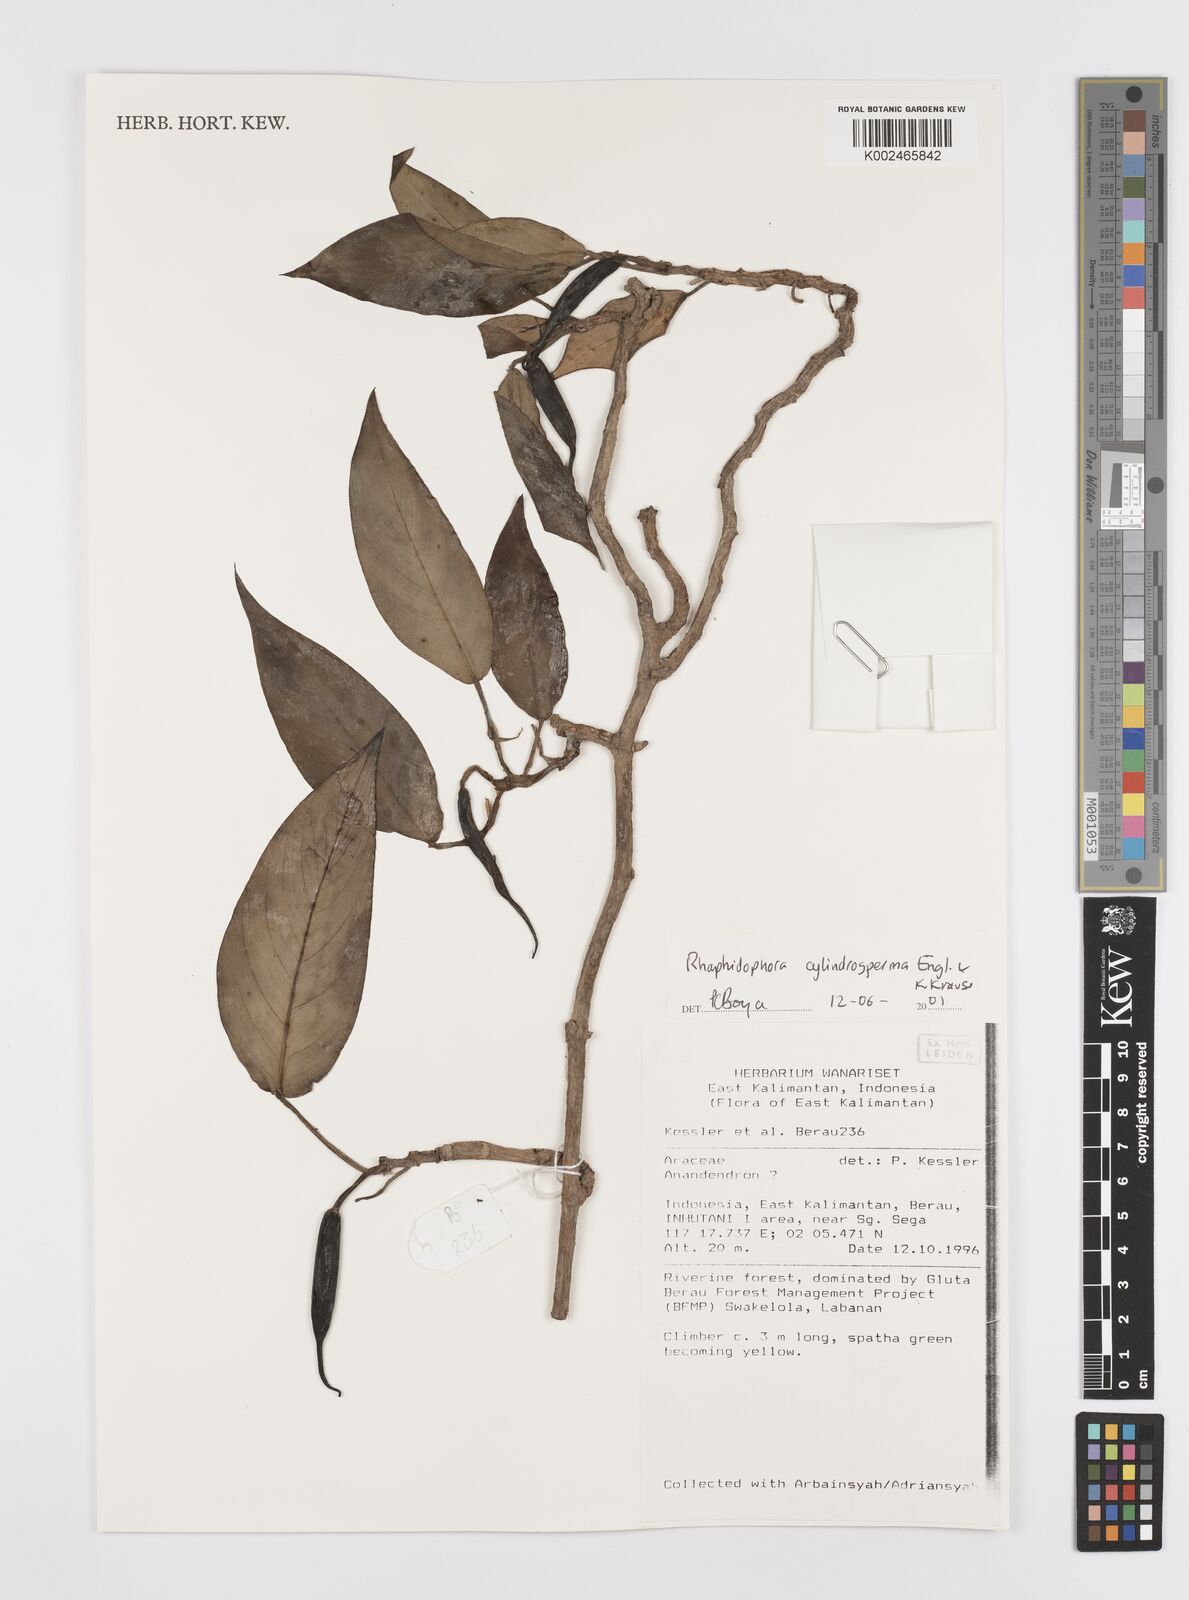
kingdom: Plantae
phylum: Tracheophyta
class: Liliopsida
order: Alismatales
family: Araceae
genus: Rhaphidophora
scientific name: Rhaphidophora cylindrosperma
